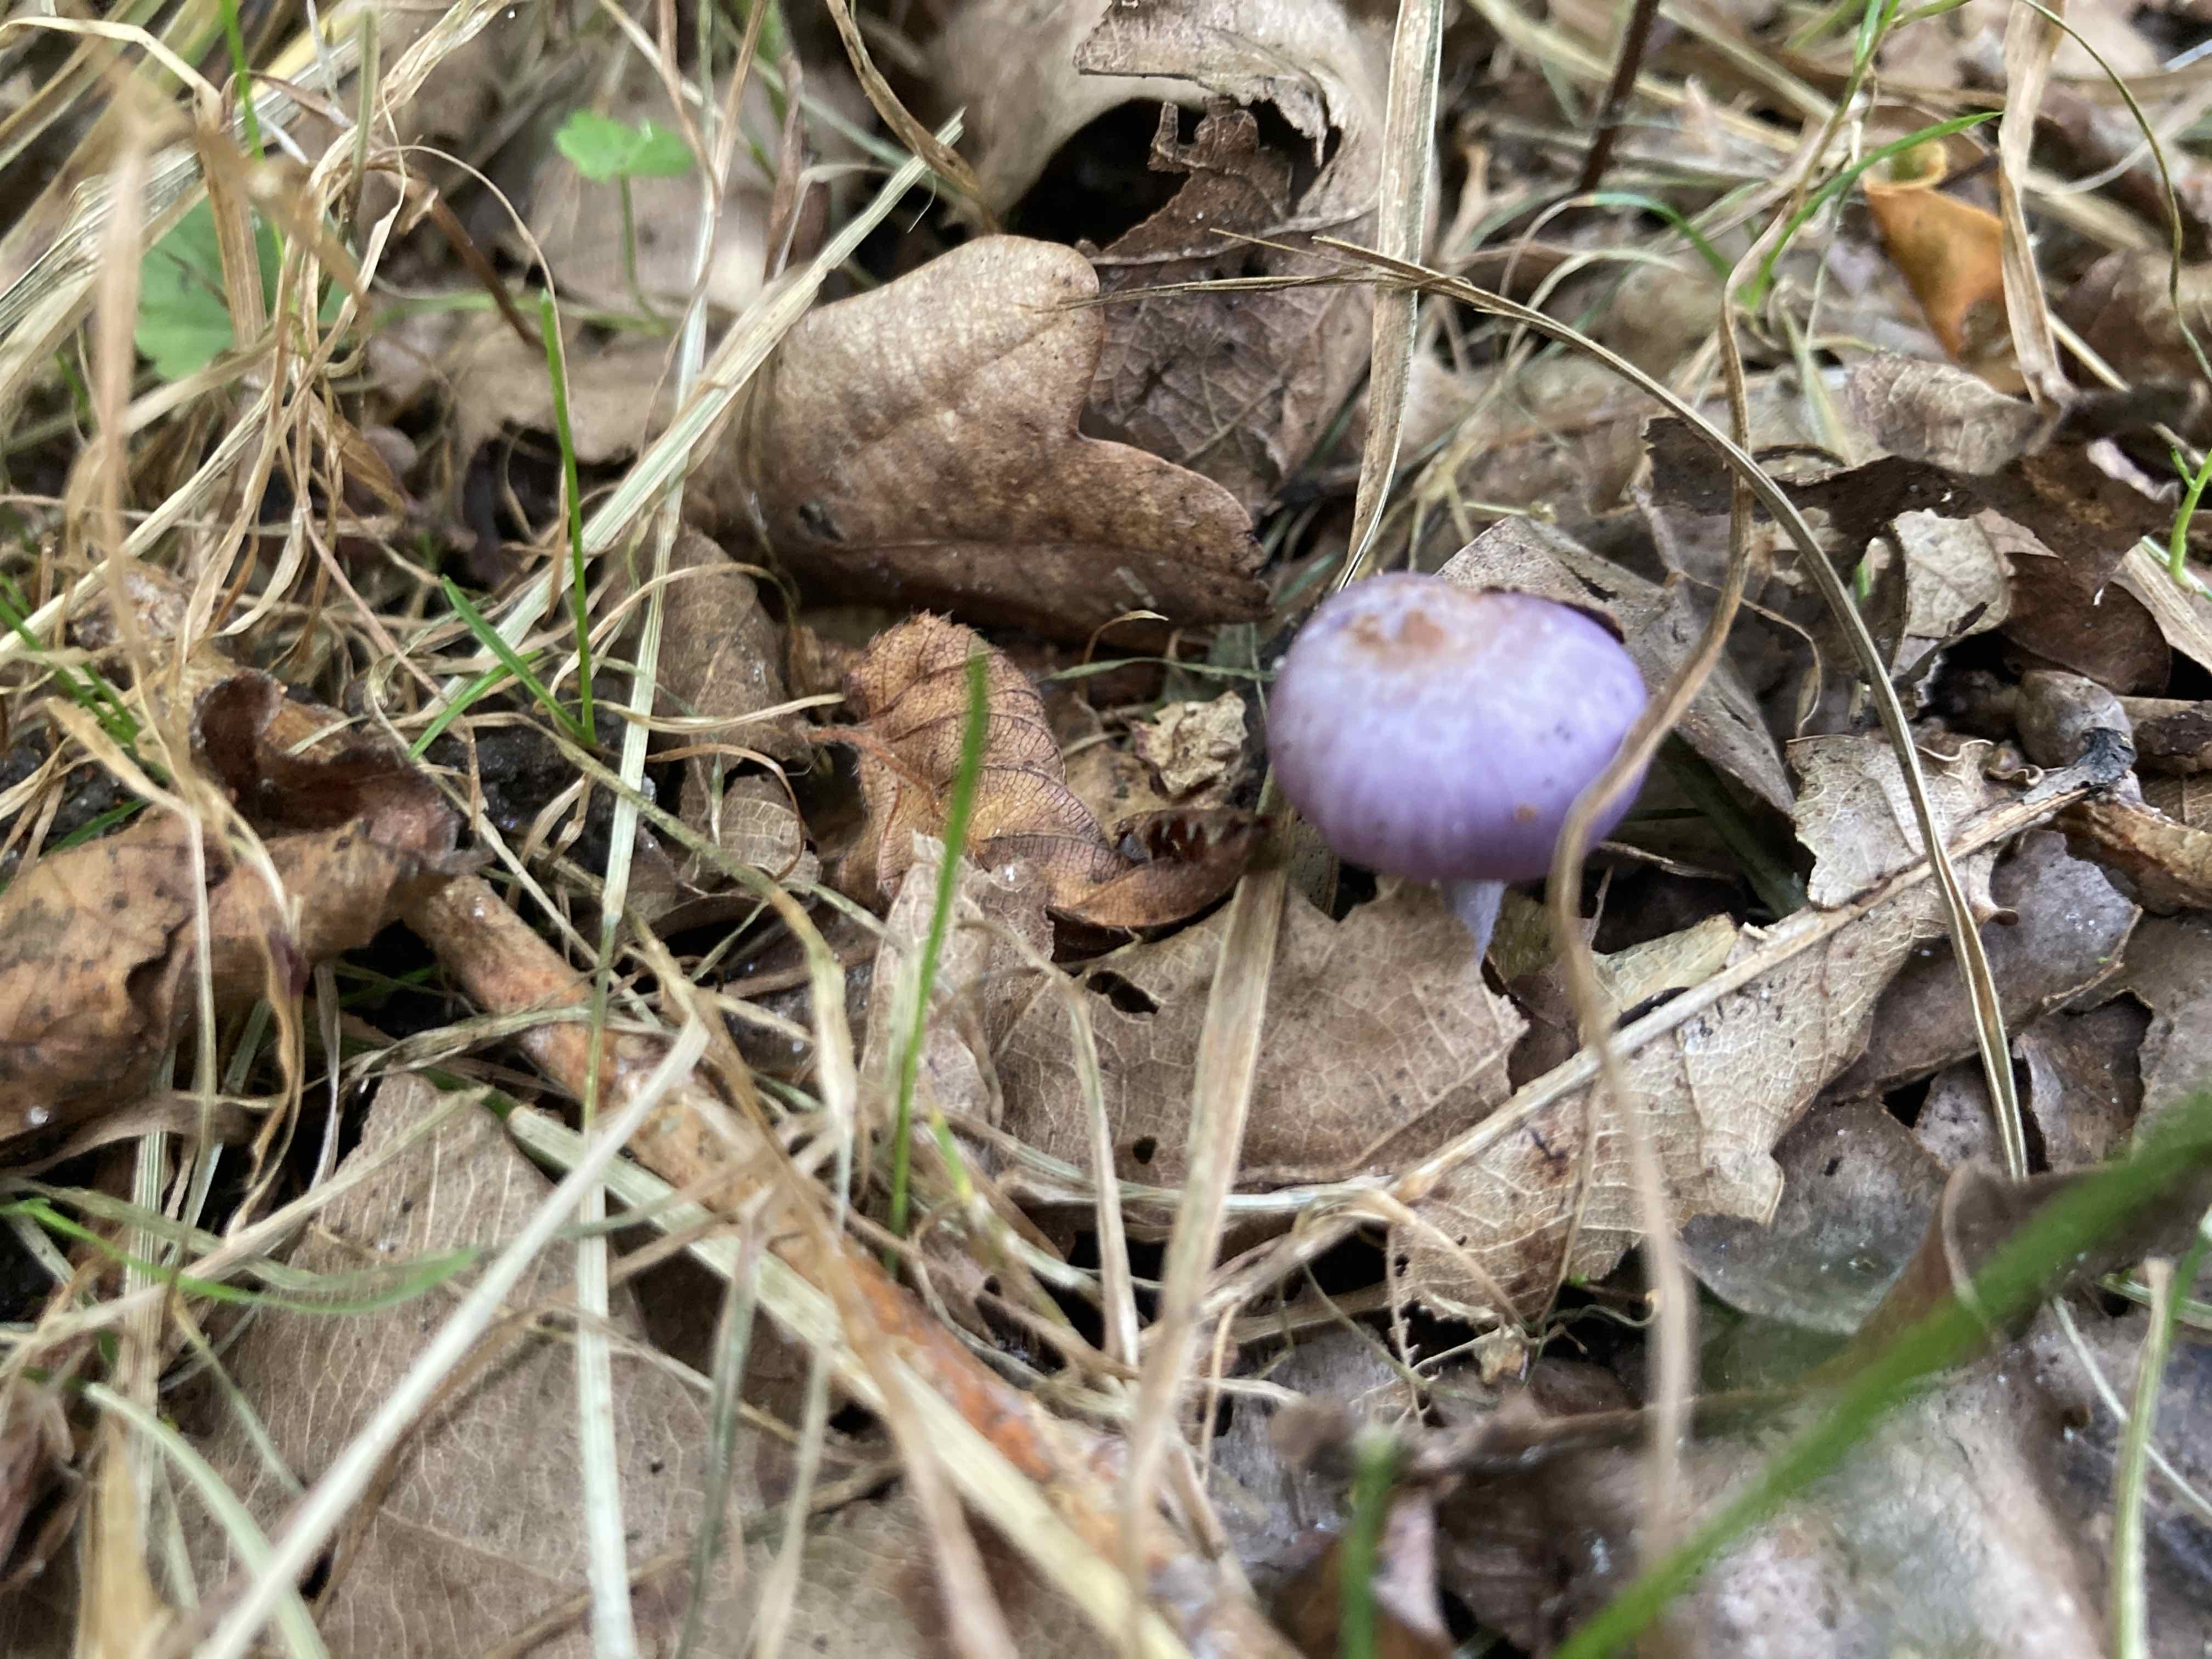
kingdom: Fungi
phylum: Basidiomycota
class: Agaricomycetes
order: Agaricales
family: Inocybaceae
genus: Inocybe
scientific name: Inocybe geophylla
